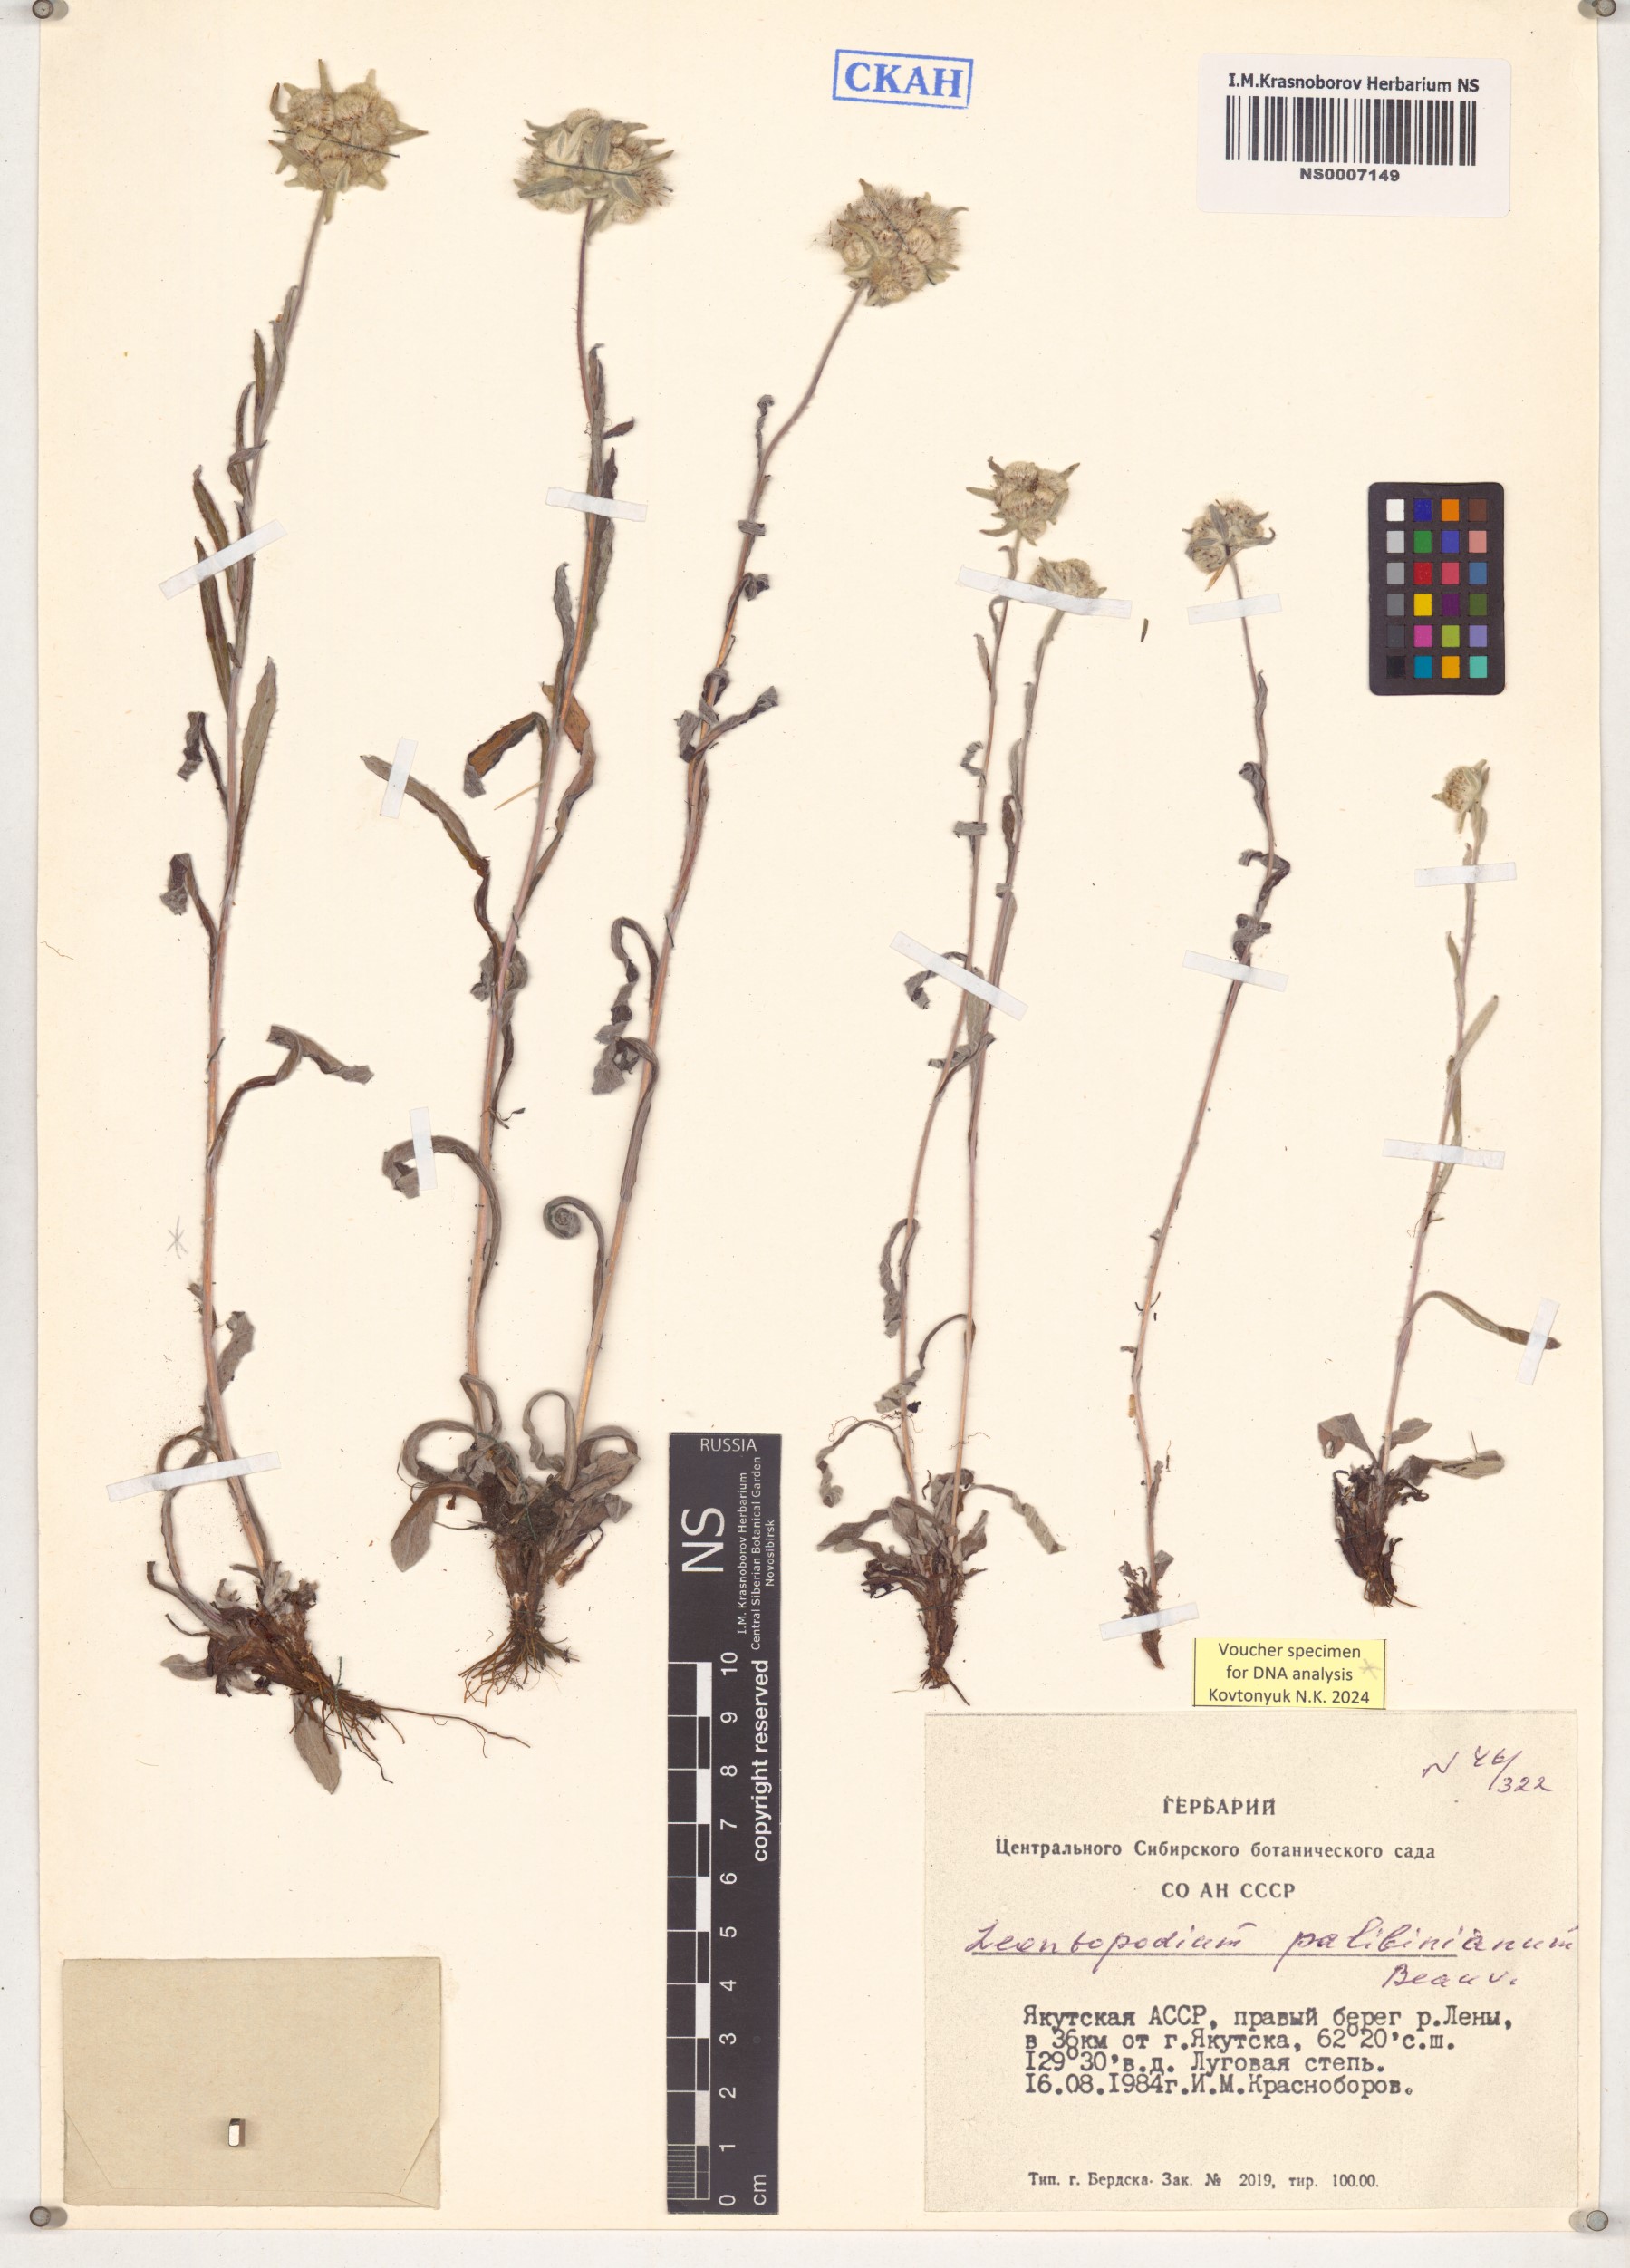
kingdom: Plantae
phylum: Tracheophyta
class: Magnoliopsida
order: Asterales
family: Asteraceae
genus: Leontopodium
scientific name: Leontopodium palibinianum
